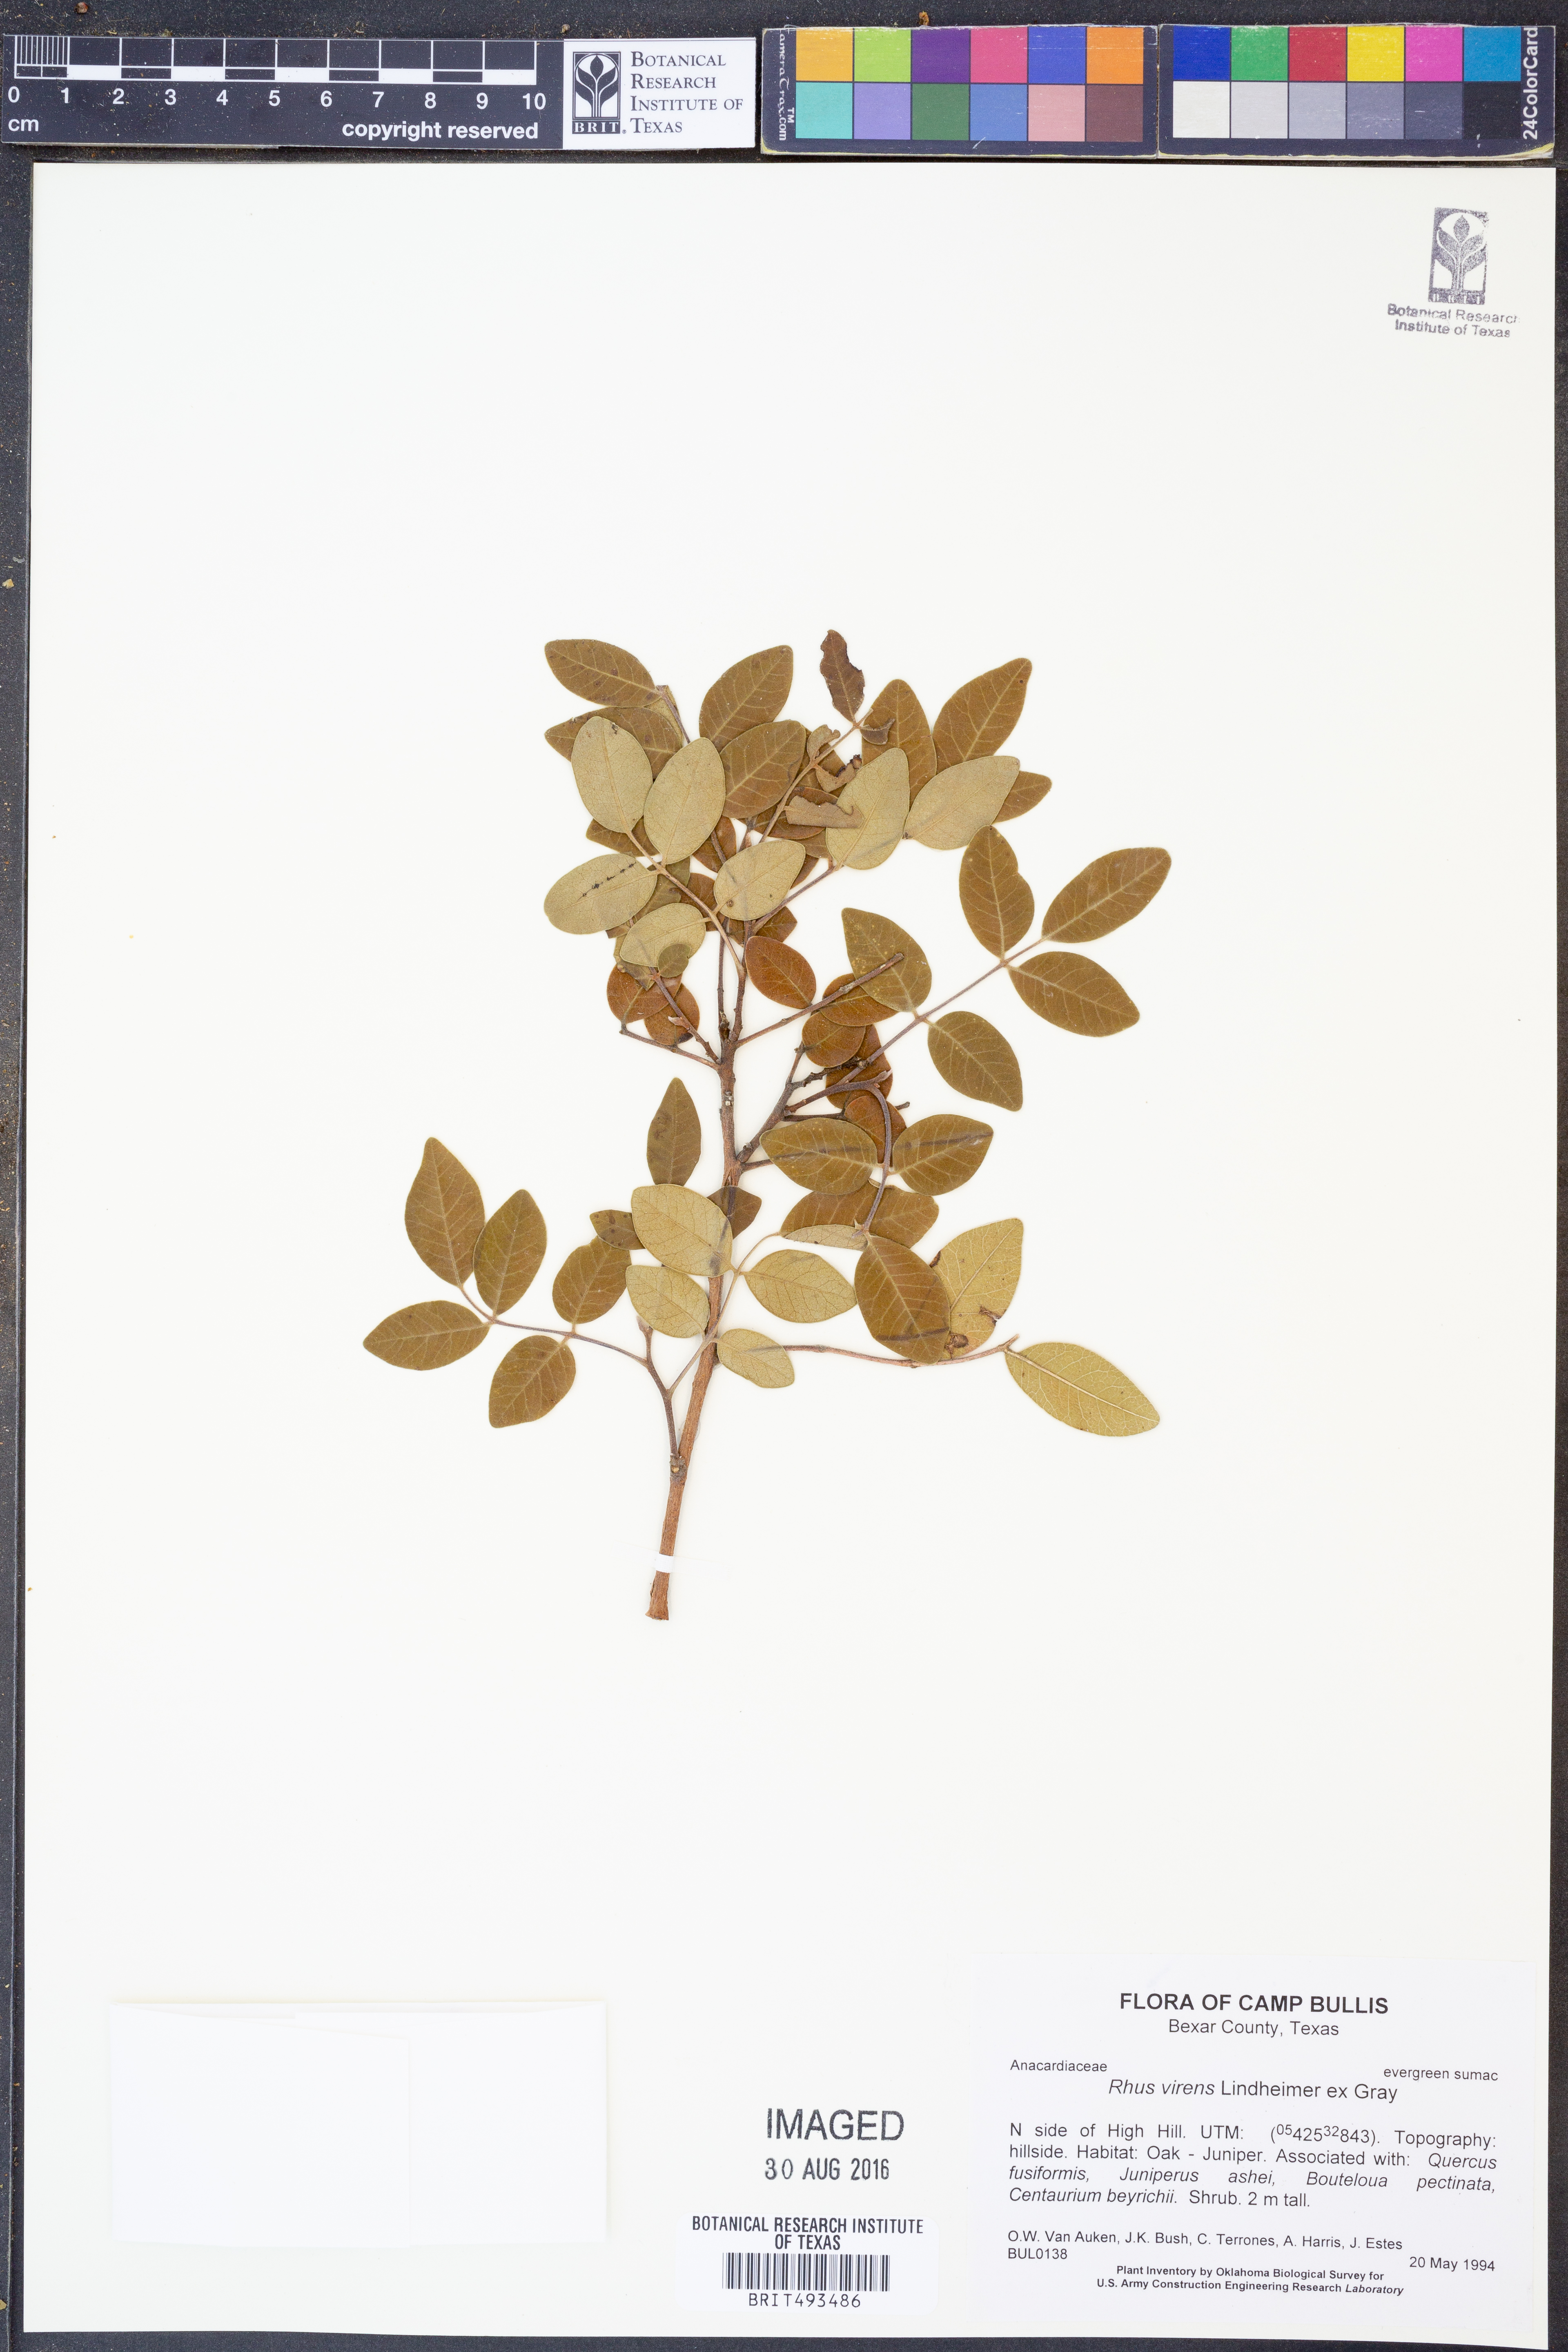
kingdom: Plantae
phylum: Tracheophyta
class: Magnoliopsida
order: Sapindales
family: Anacardiaceae
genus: Rhus
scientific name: Rhus virens
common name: Evergreen sumac
